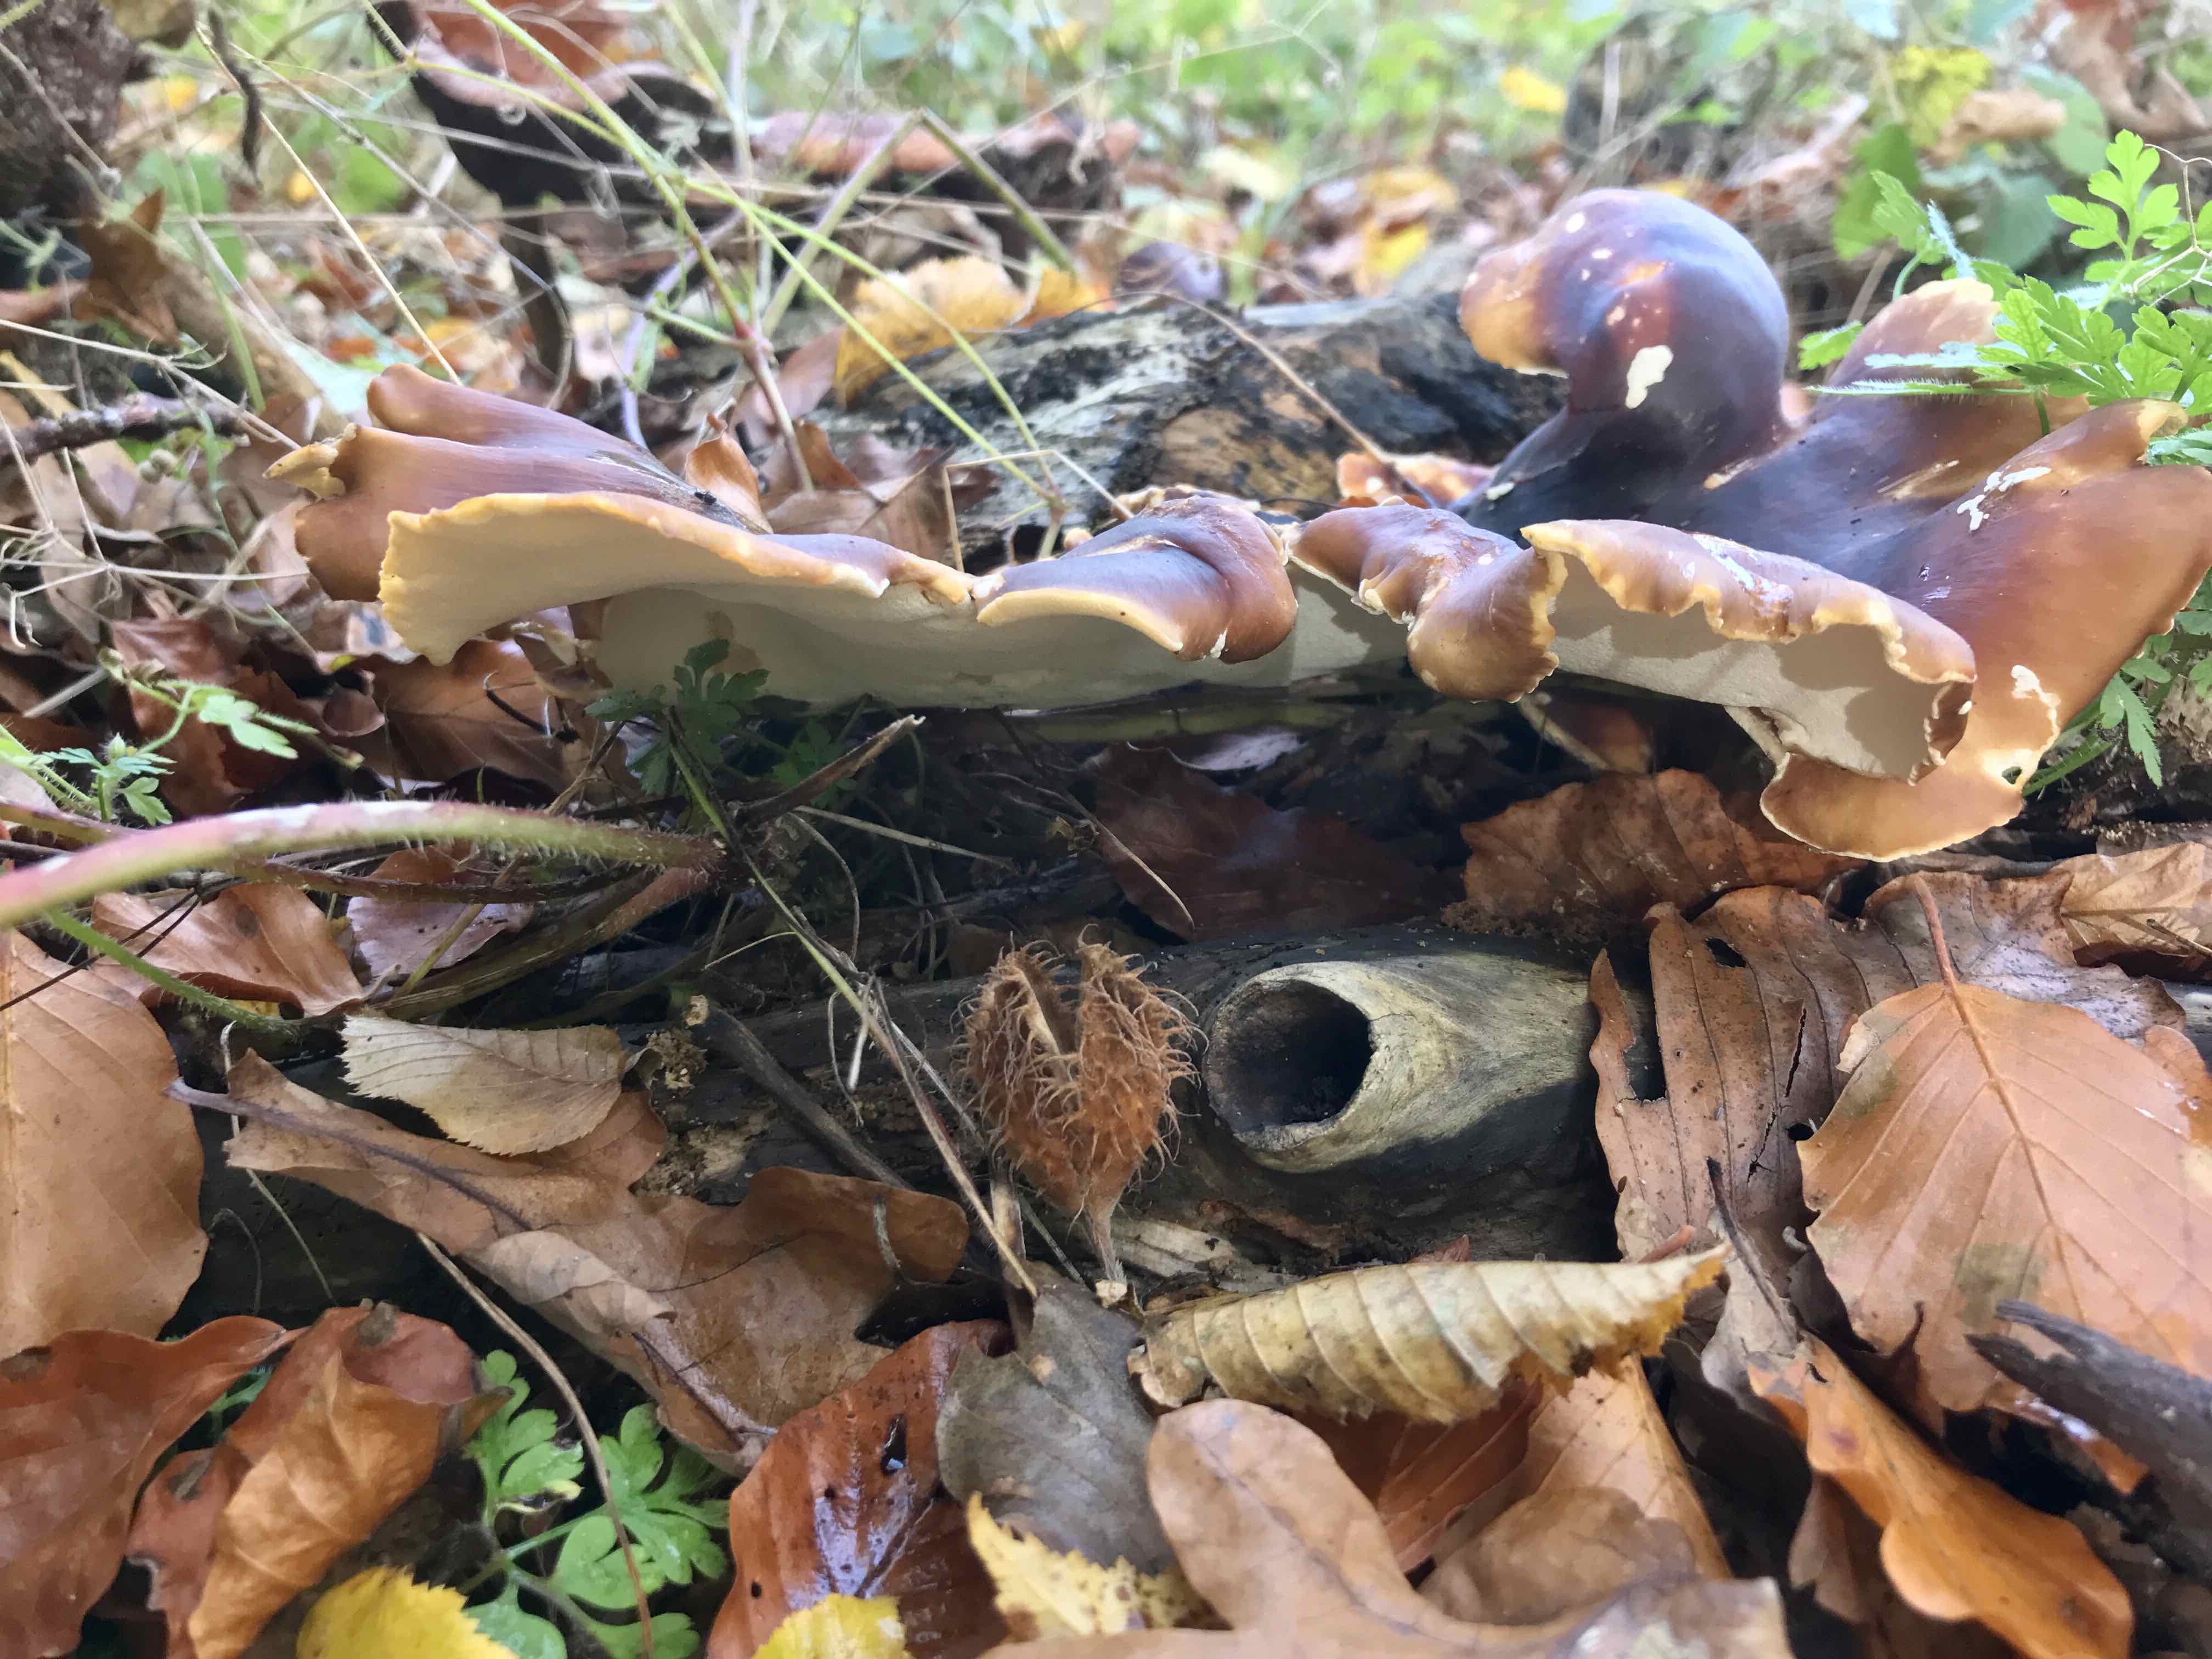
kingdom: Fungi
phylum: Basidiomycota
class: Agaricomycetes
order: Polyporales
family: Polyporaceae
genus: Picipes
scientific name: Picipes badius
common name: kastaniebrun stilkporesvamp
